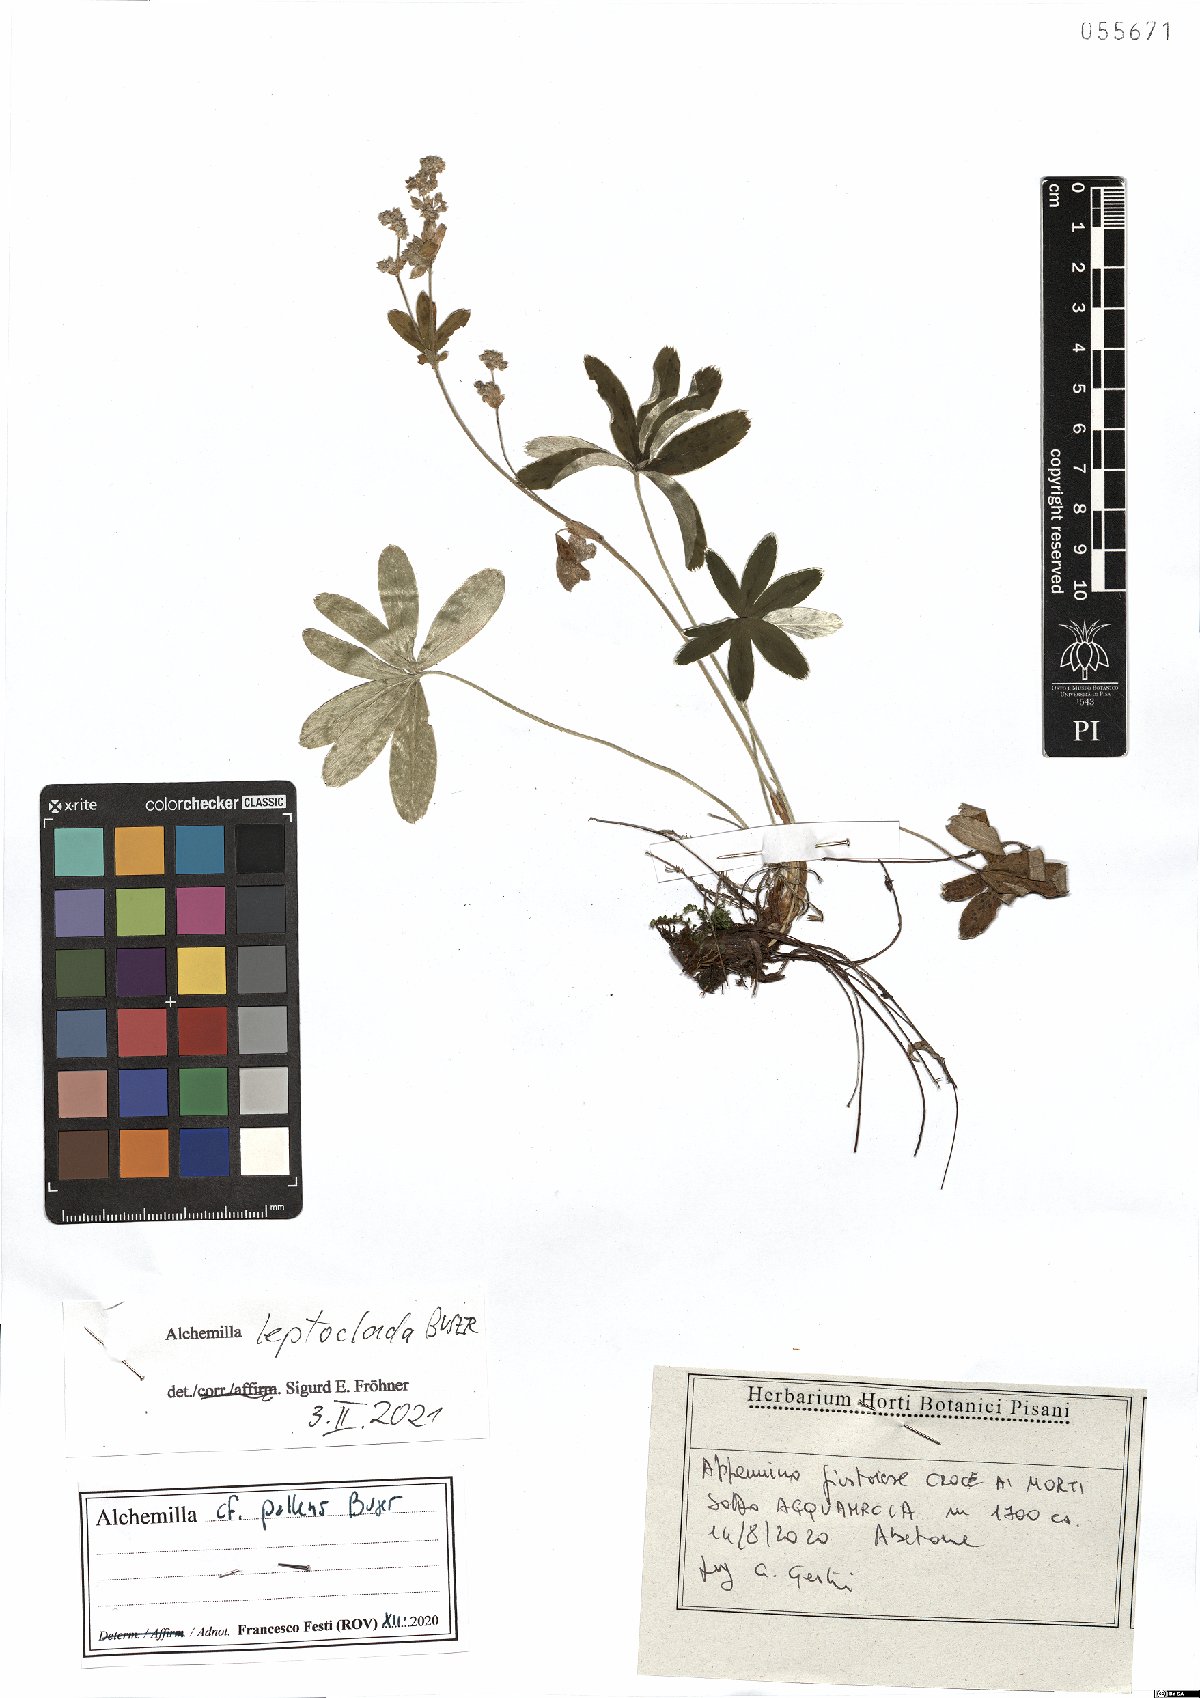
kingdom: Plantae
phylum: Tracheophyta
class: Magnoliopsida
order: Rosales
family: Rosaceae
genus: Alchemilla
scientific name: Alchemilla leptoclada
